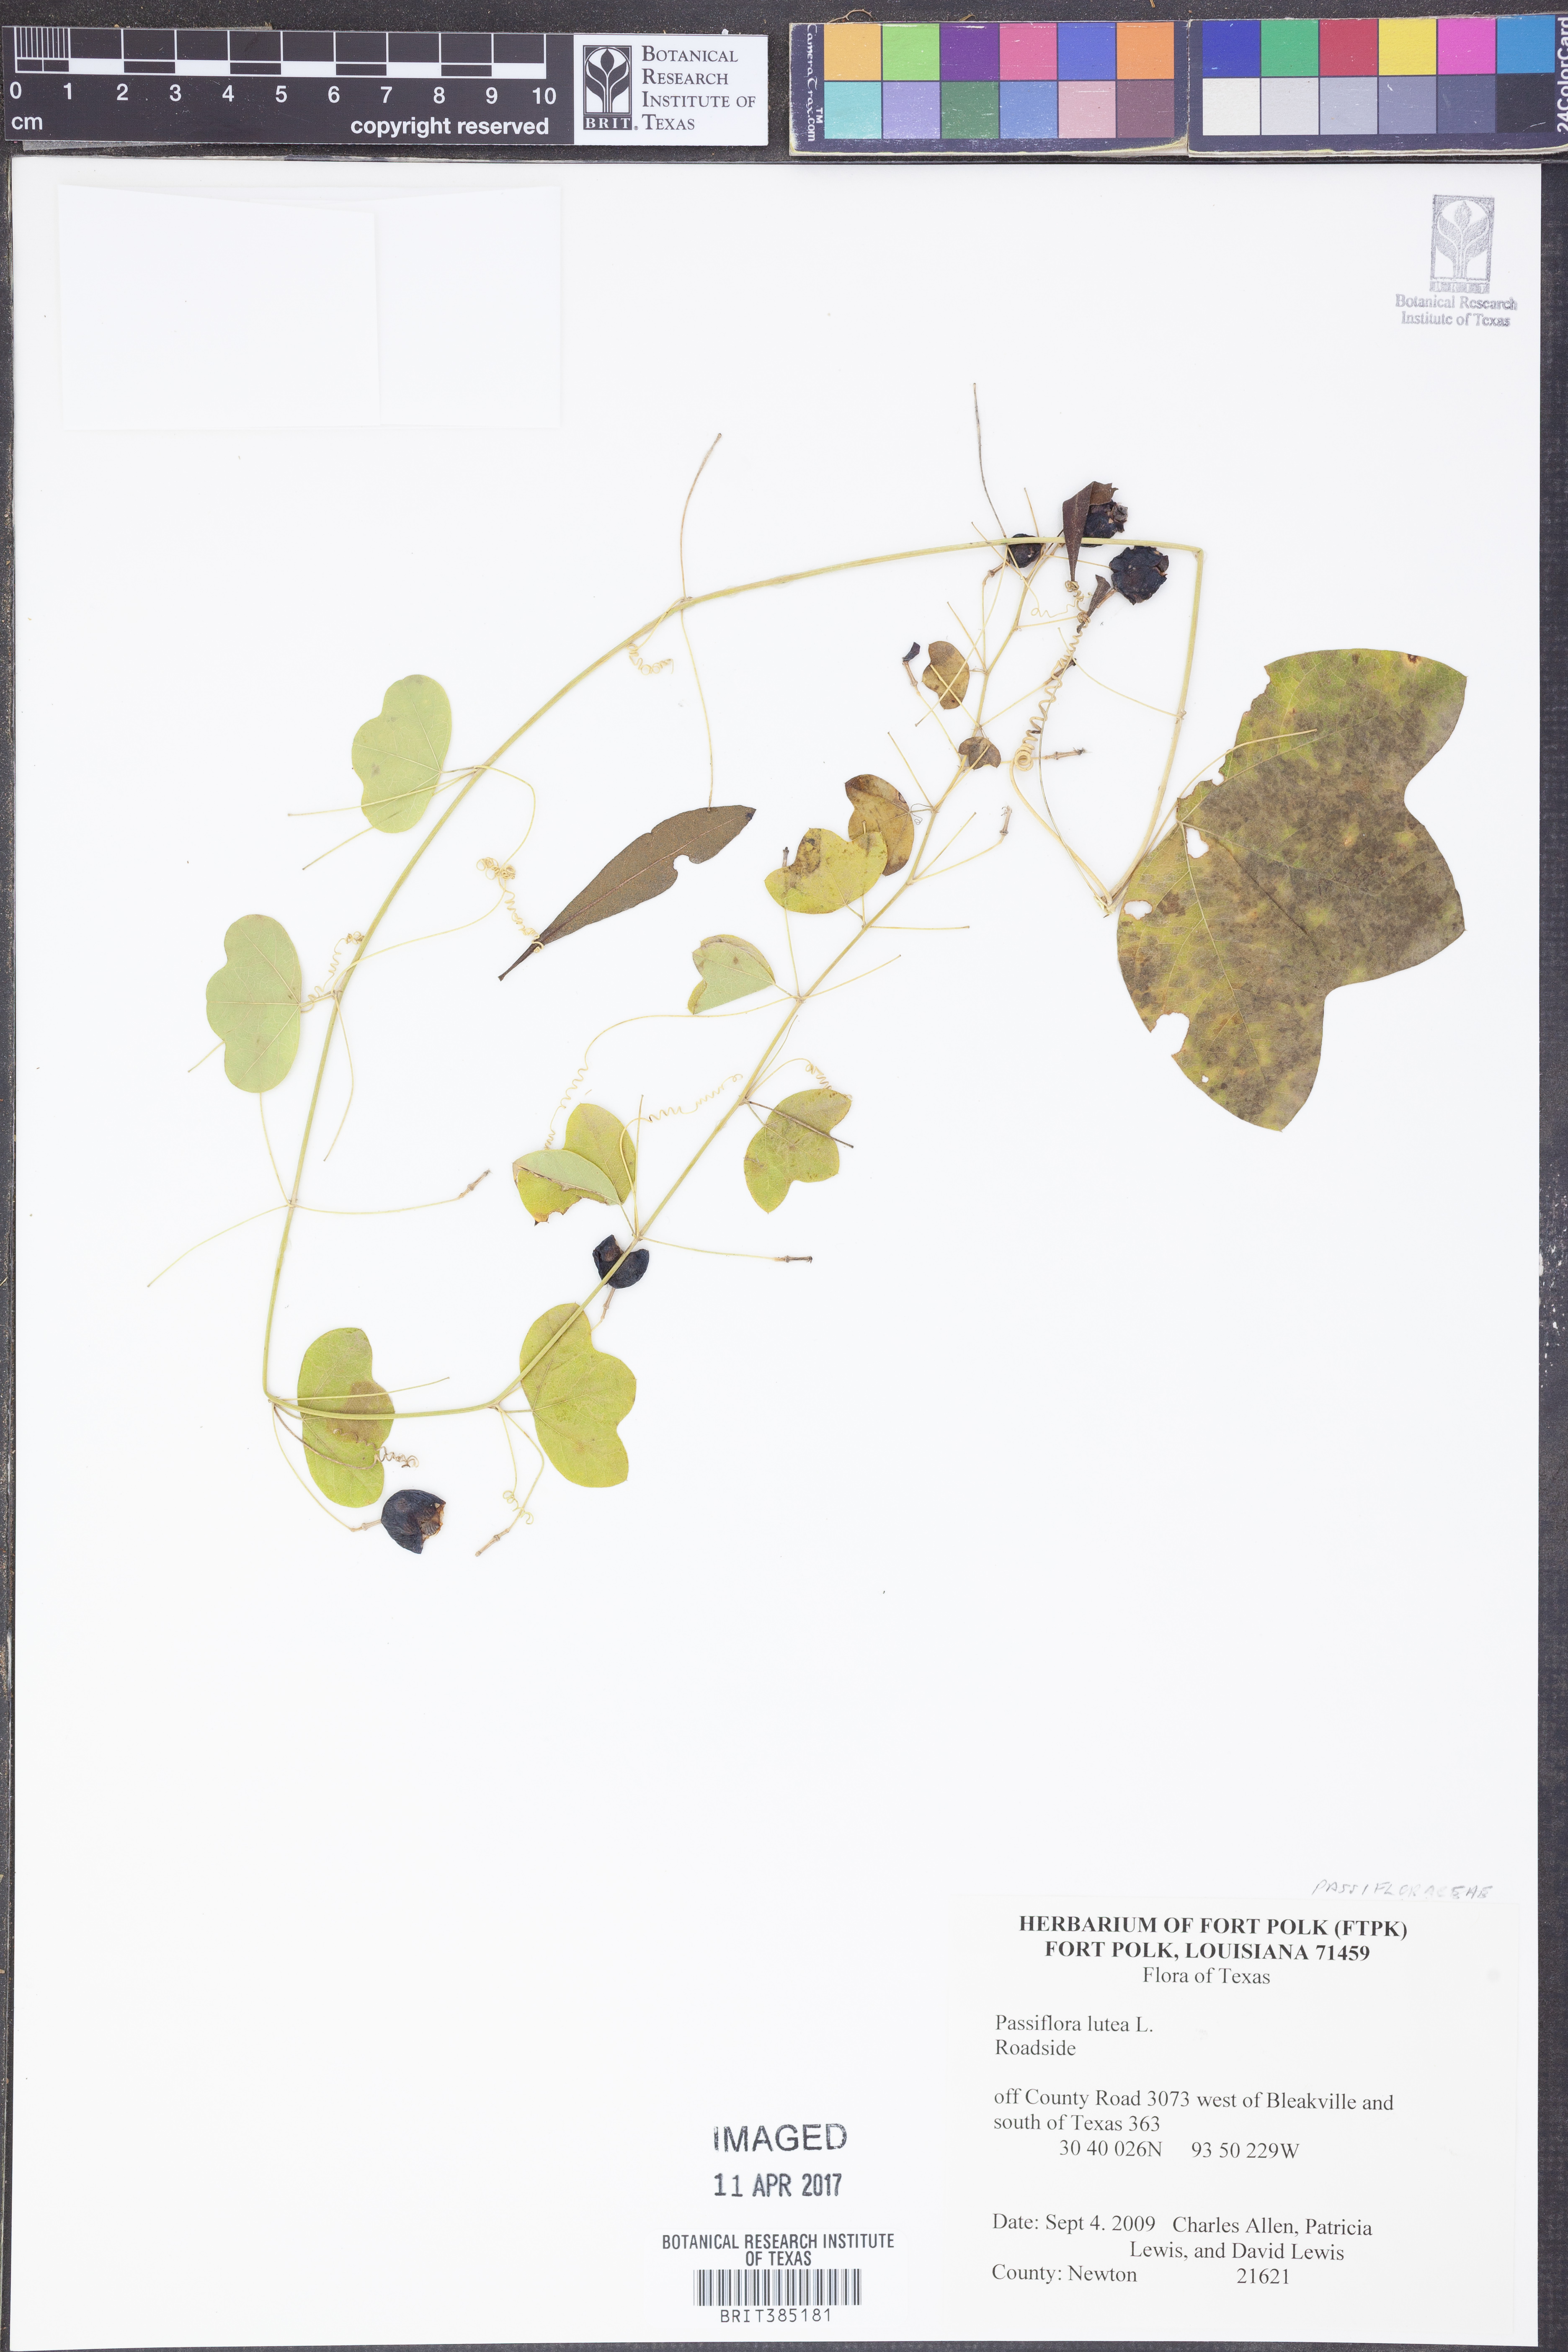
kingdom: Plantae
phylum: Tracheophyta
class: Magnoliopsida
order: Malpighiales
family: Passifloraceae
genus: Passiflora
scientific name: Passiflora lutea
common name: Yellow passionflower
